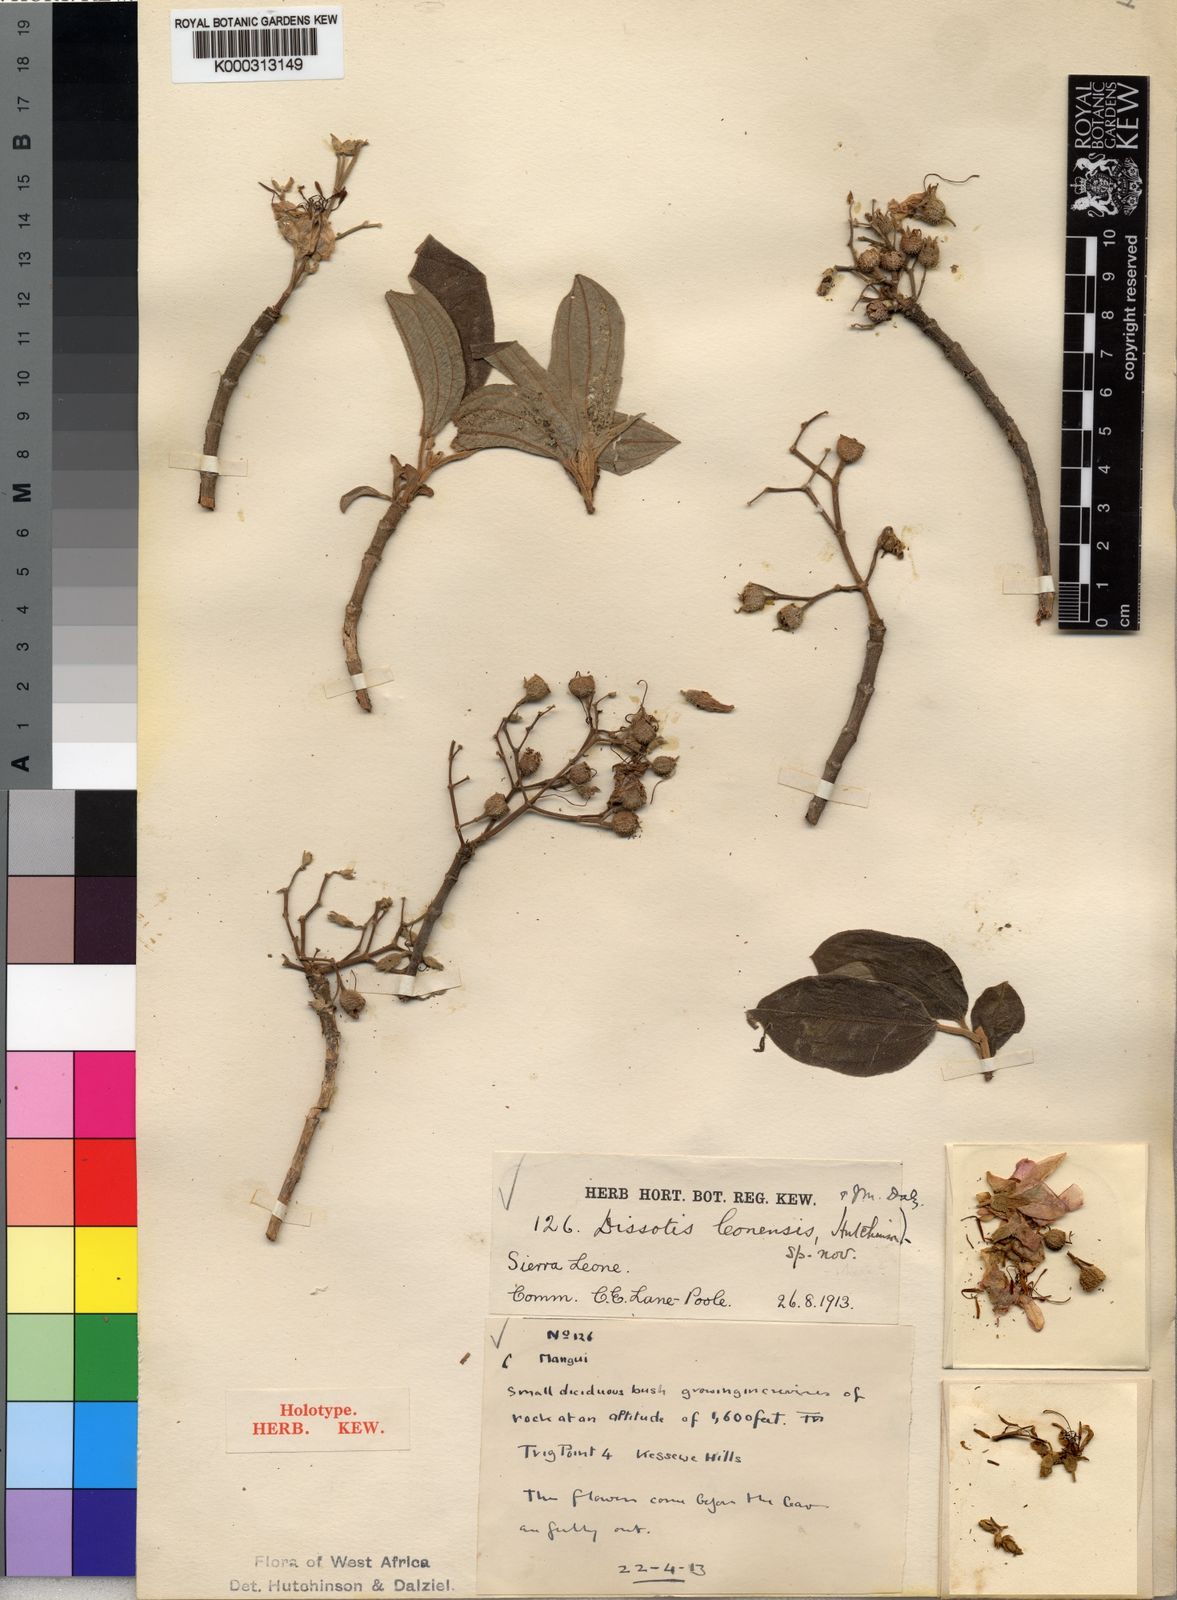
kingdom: Plantae
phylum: Tracheophyta
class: Magnoliopsida
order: Myrtales
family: Melastomataceae
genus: Dissotis
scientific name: Dissotis leonensis
